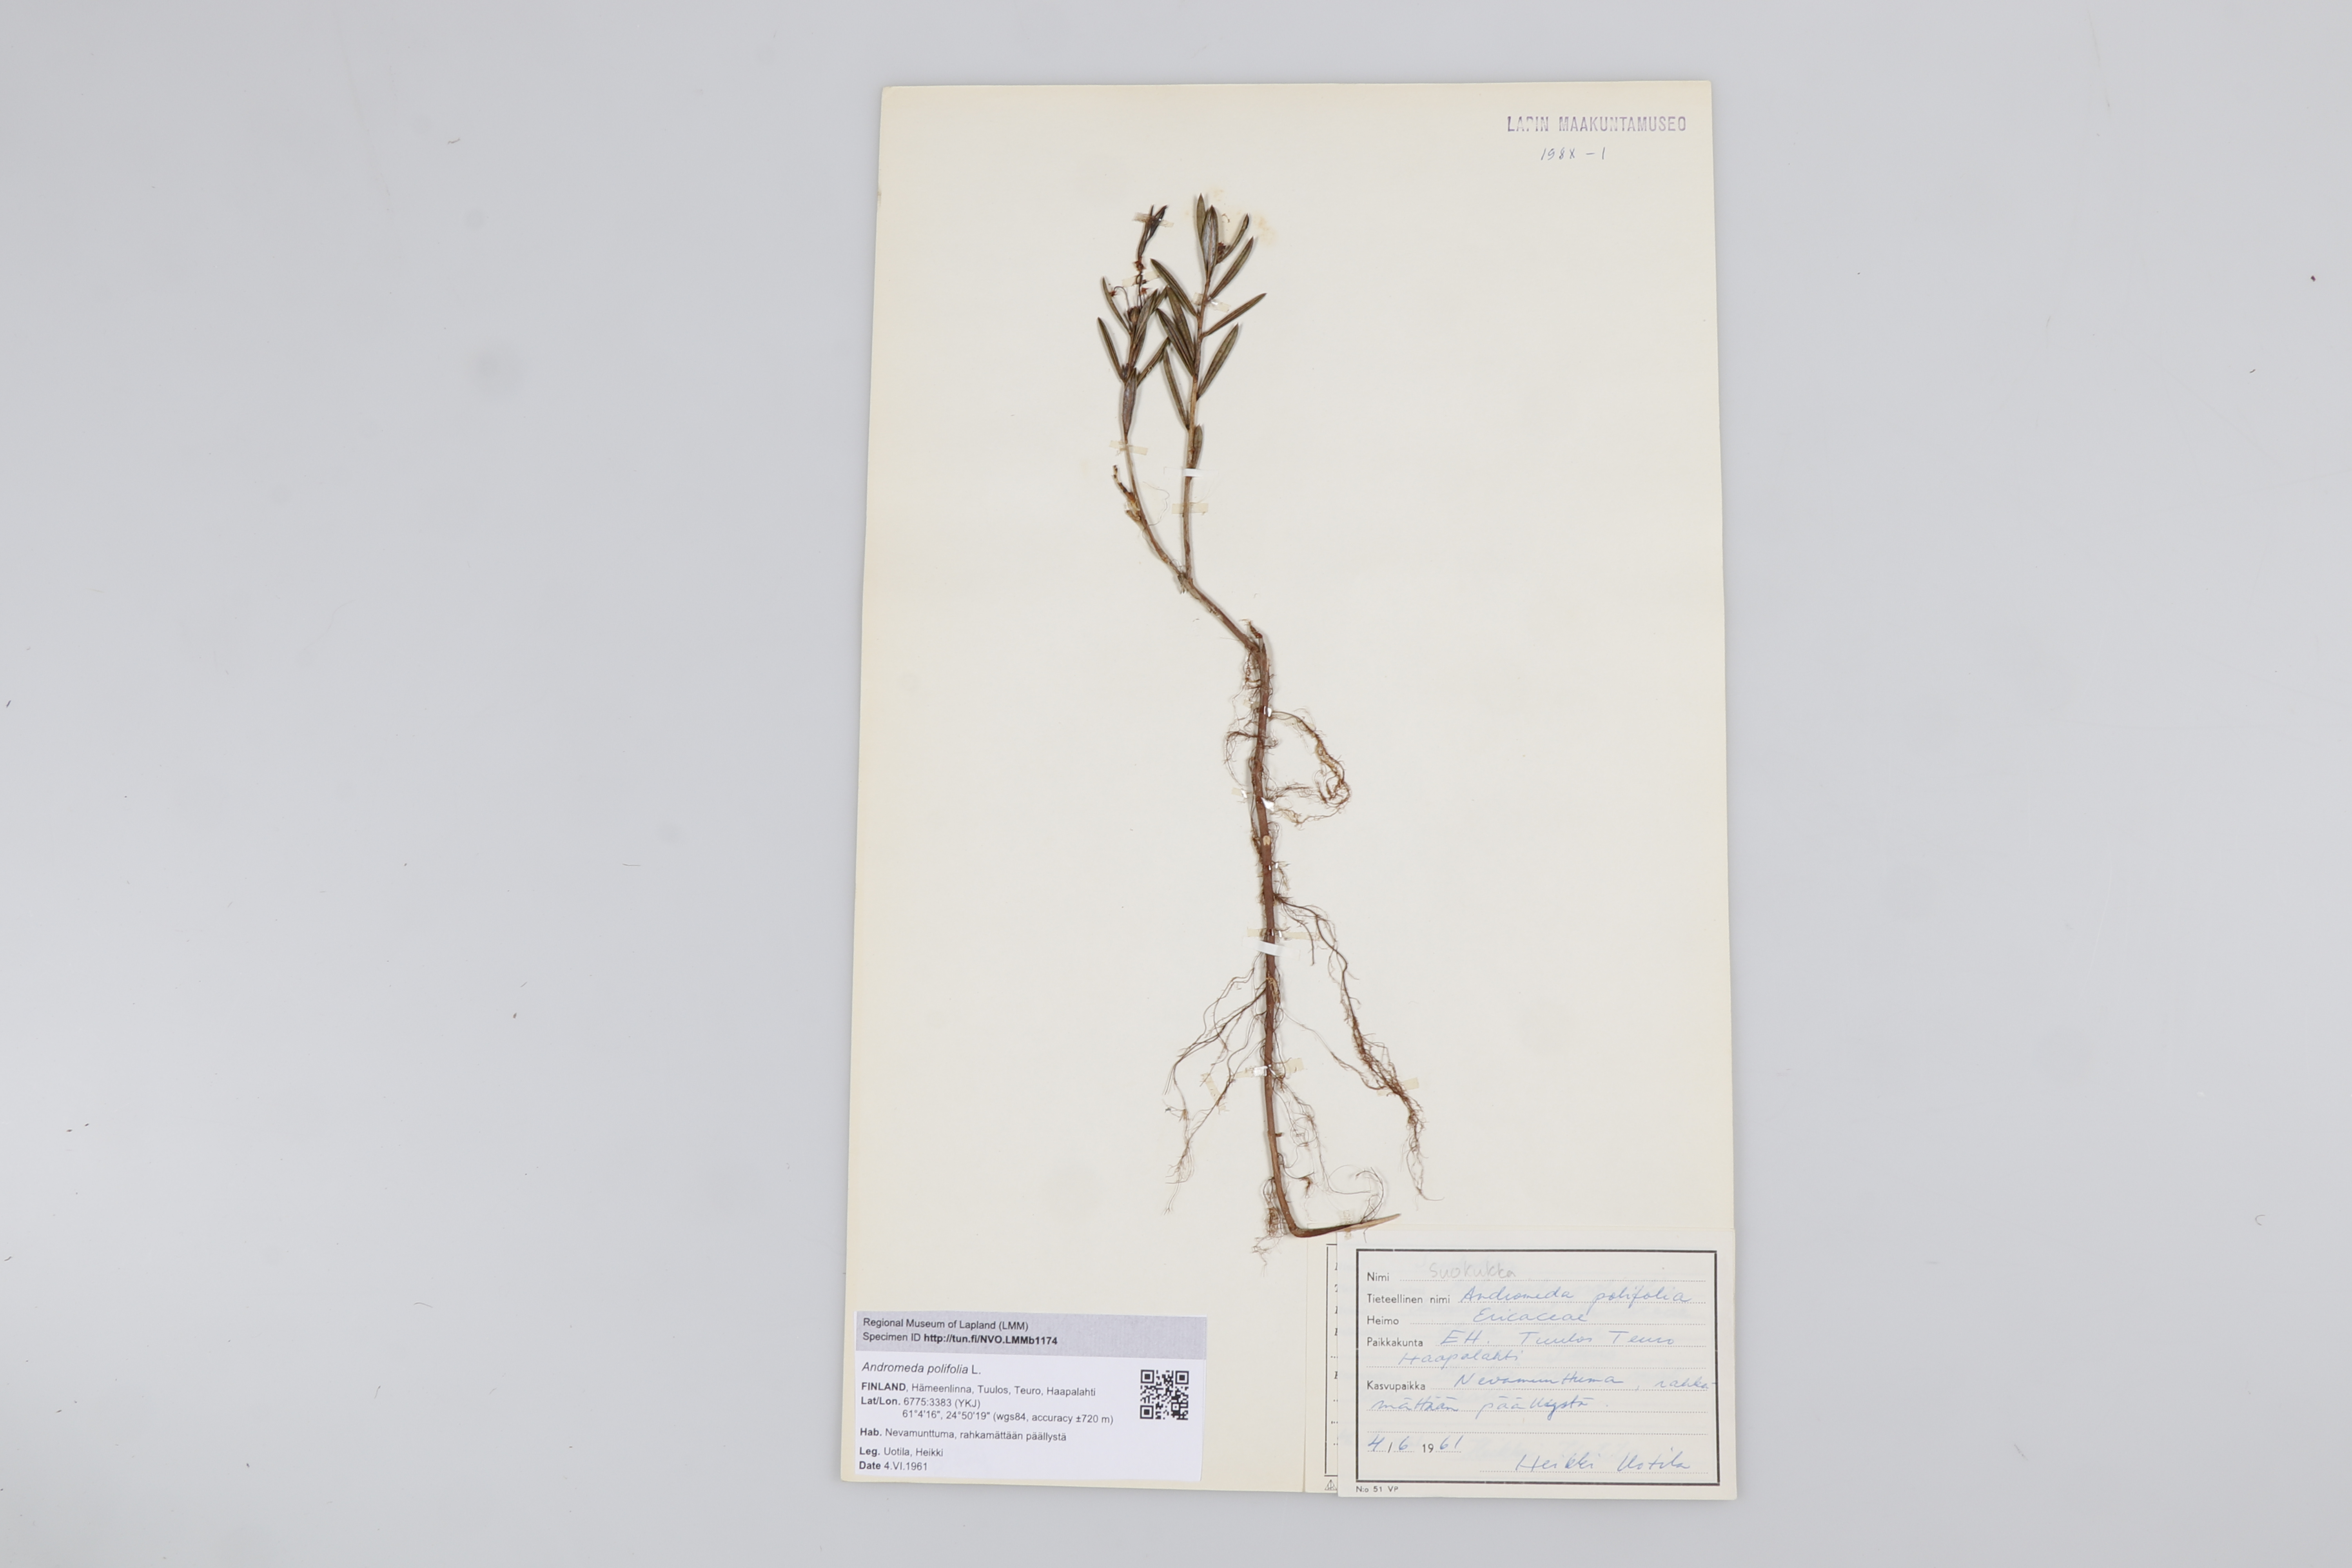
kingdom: Plantae
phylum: Tracheophyta
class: Magnoliopsida
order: Ericales
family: Ericaceae
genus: Andromeda
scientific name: Andromeda polifolia
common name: Bog-rosemary
